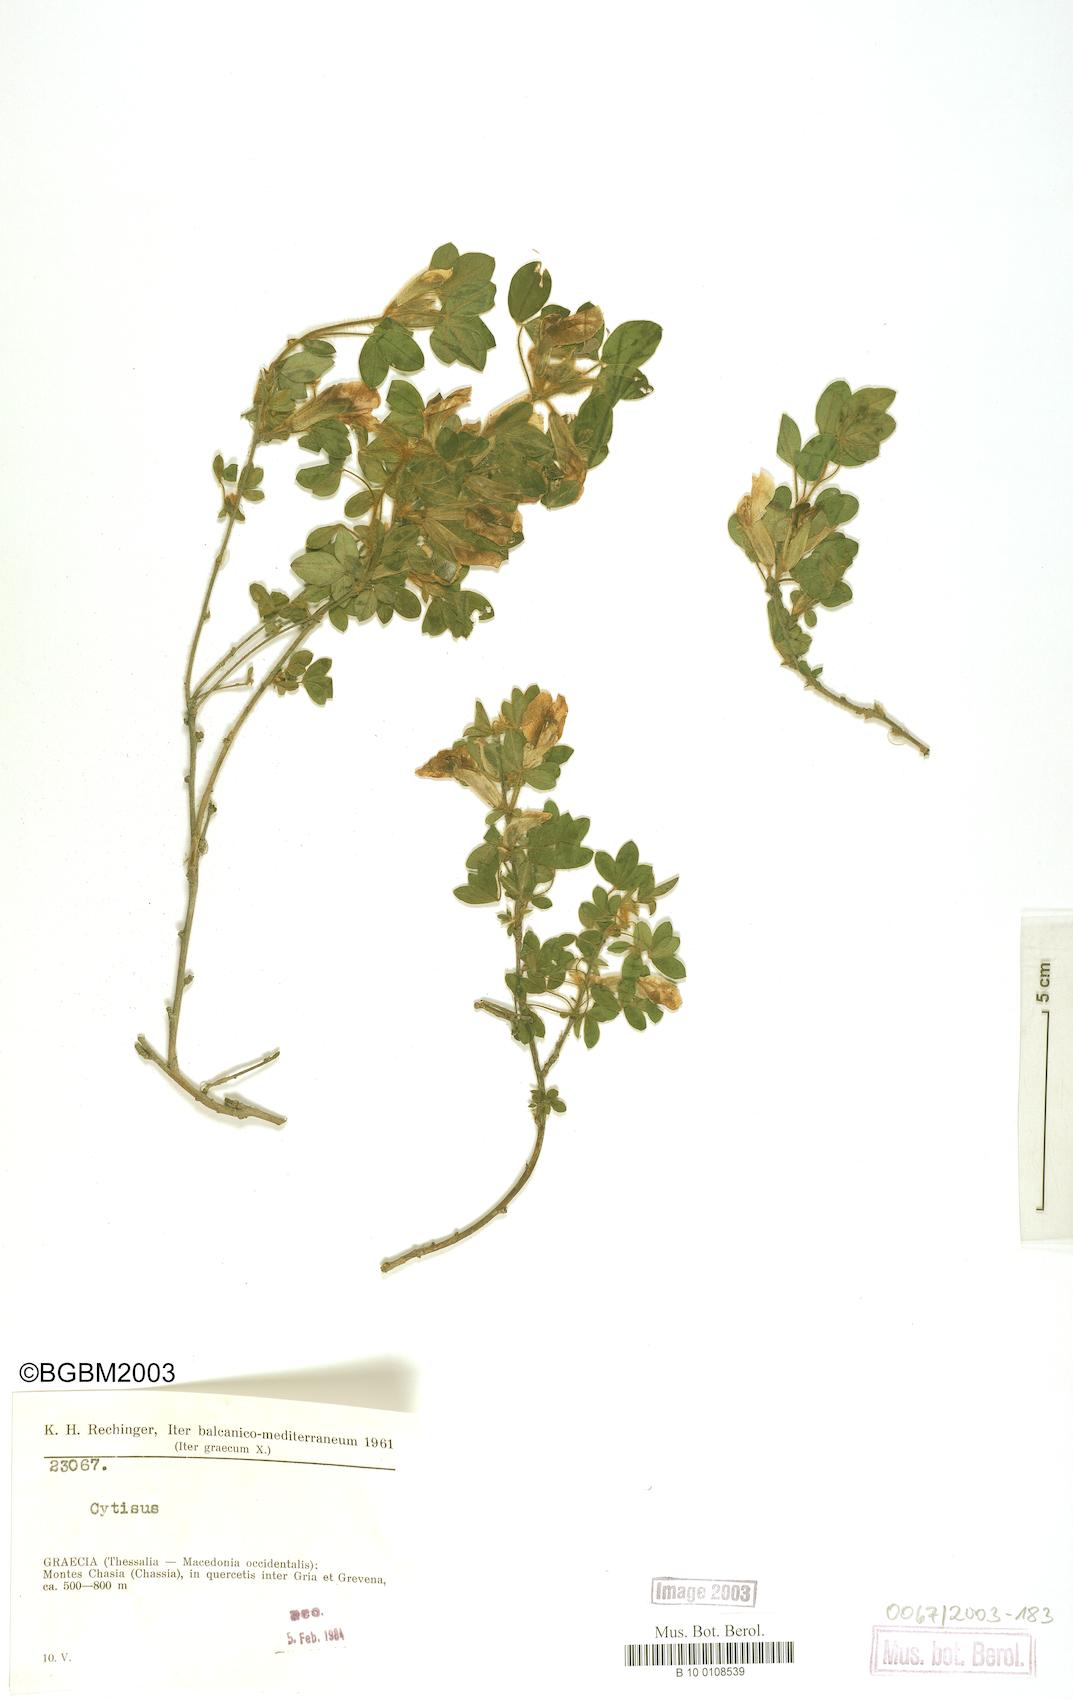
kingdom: Plantae
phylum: Tracheophyta
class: Magnoliopsida
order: Fabales
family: Fabaceae
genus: Cytisus
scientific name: Cytisus
